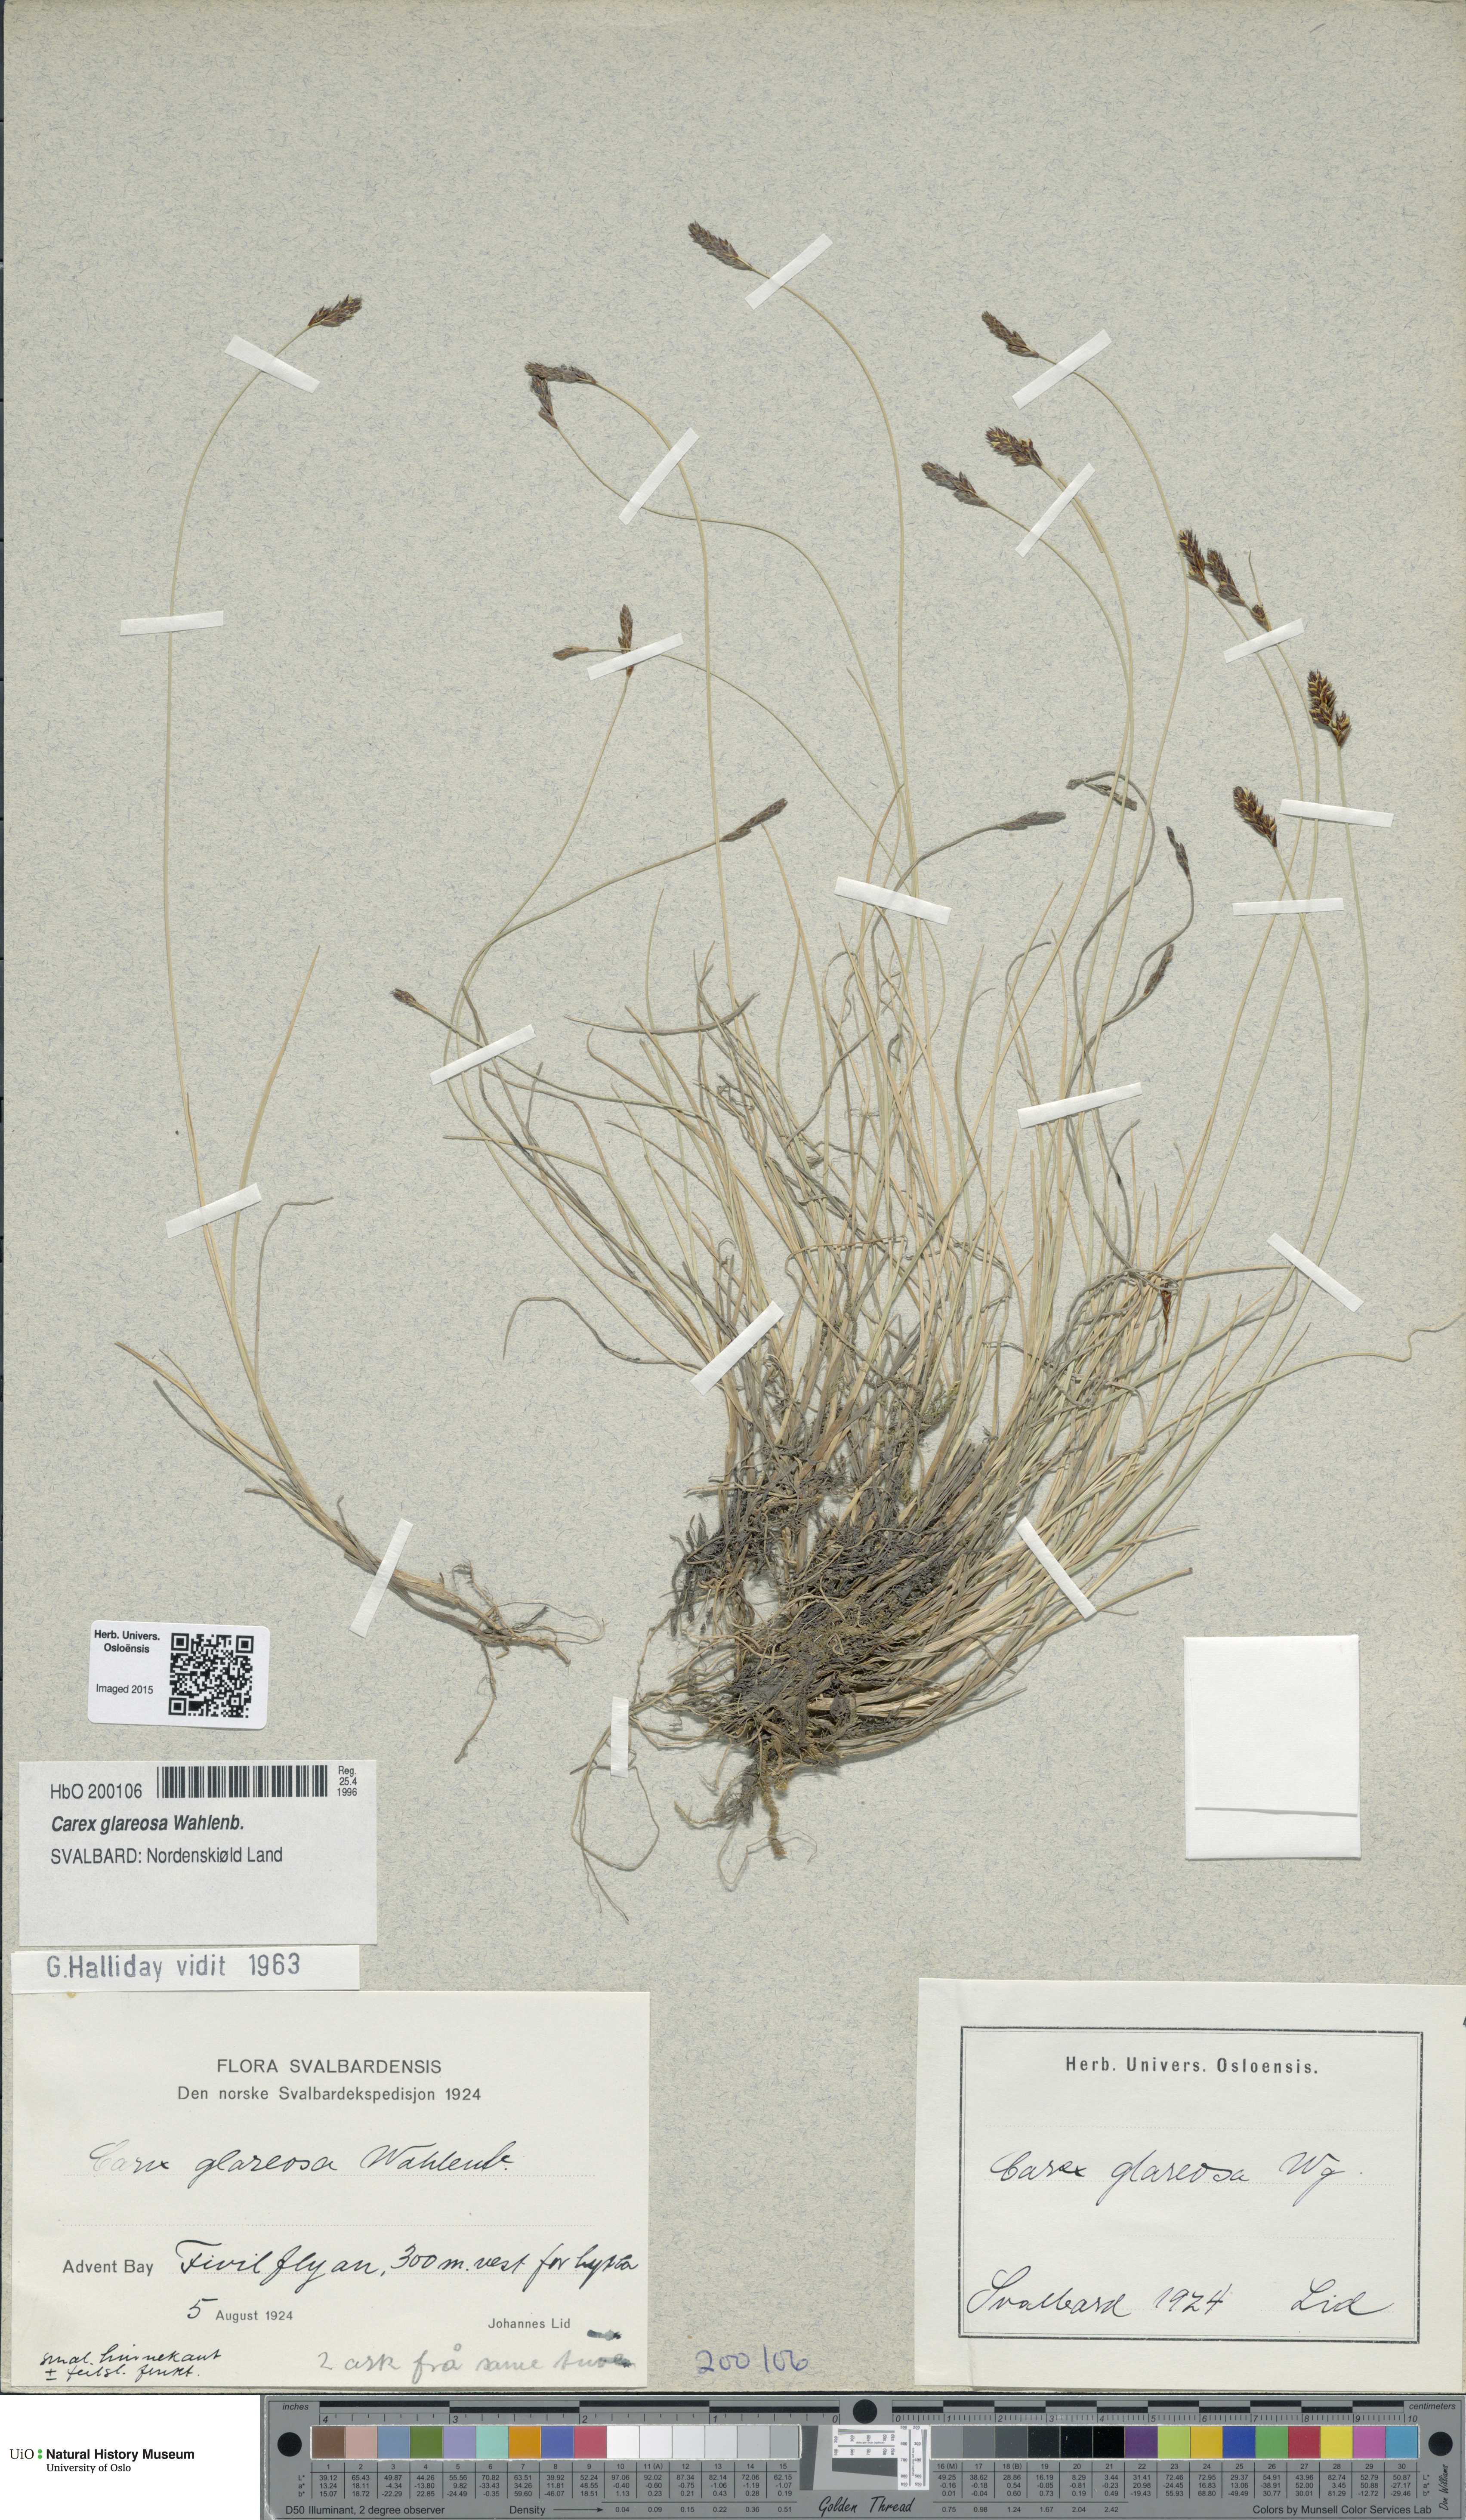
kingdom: Plantae
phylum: Tracheophyta
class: Liliopsida
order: Poales
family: Cyperaceae
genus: Carex
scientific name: Carex glareosa
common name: Clustered sedge
